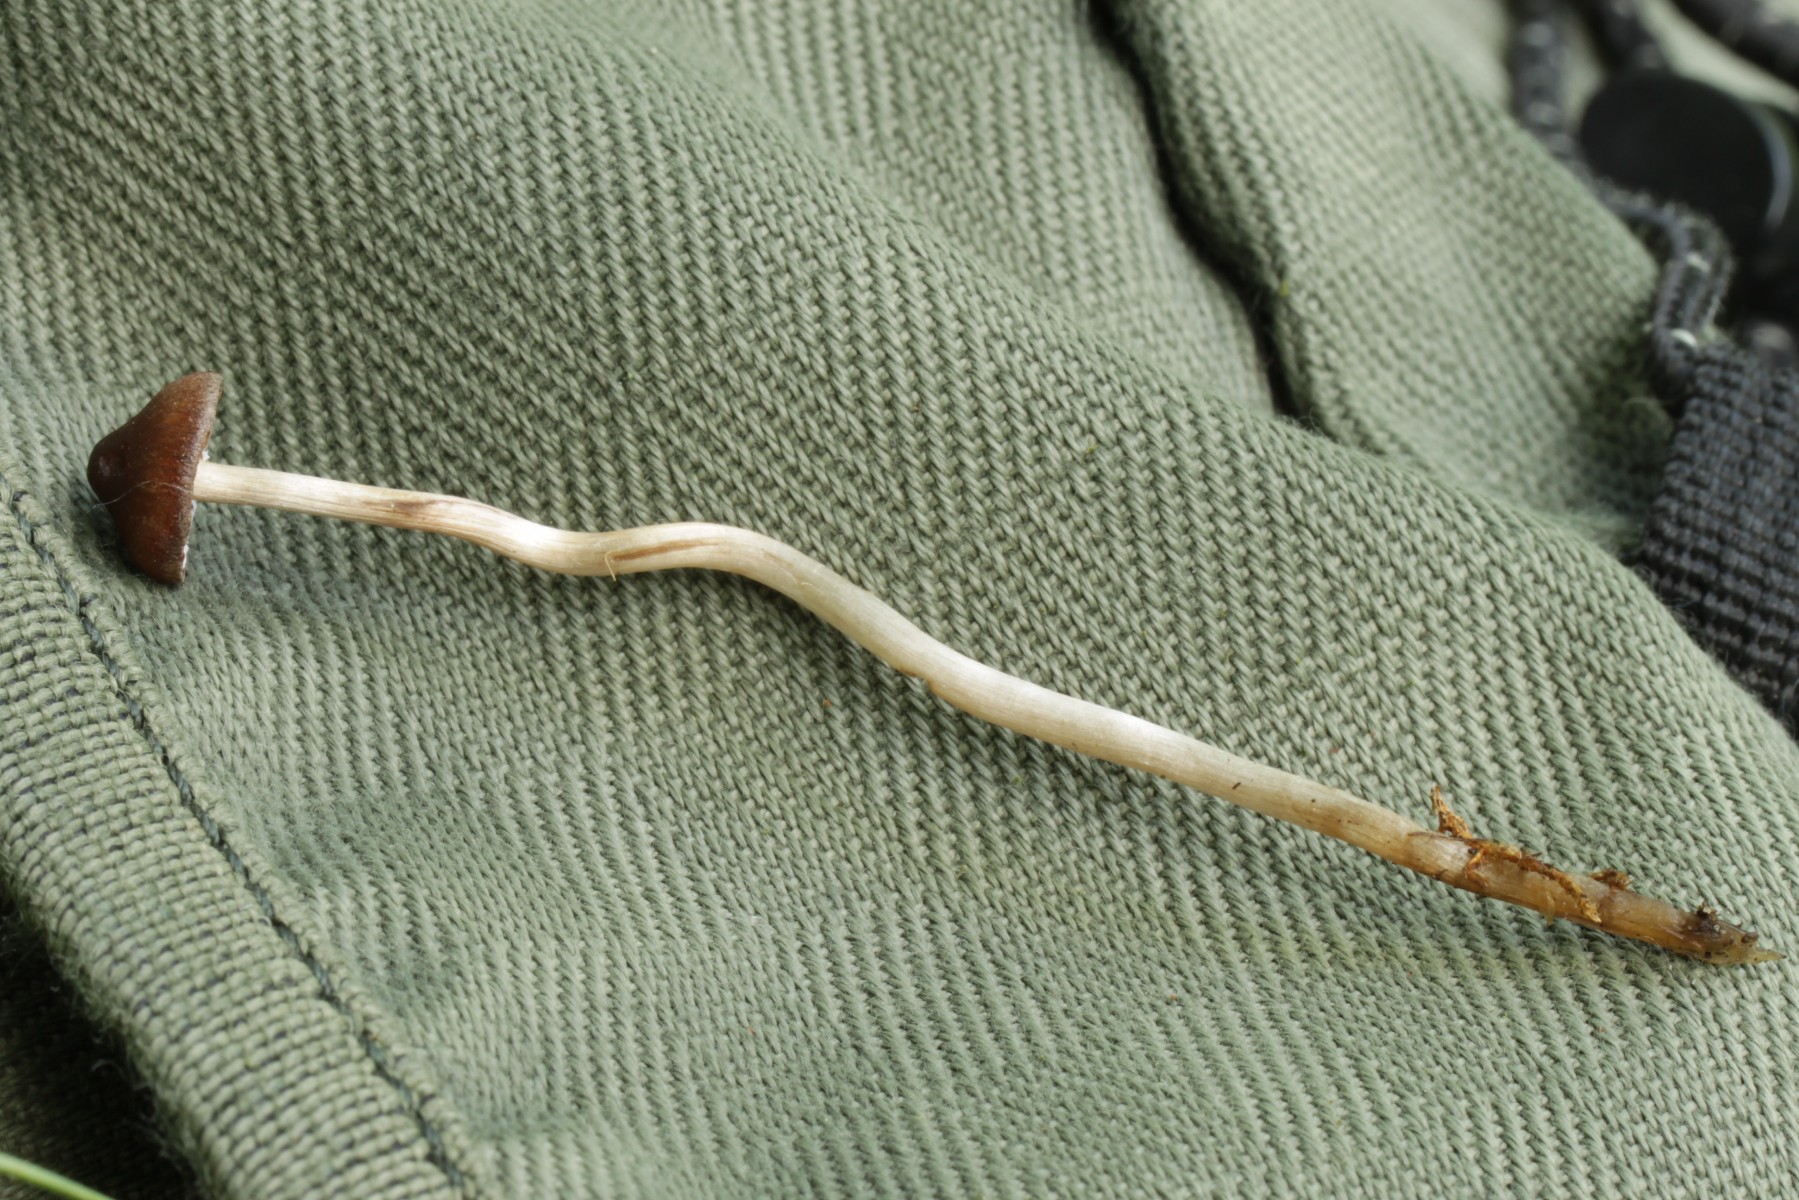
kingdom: Fungi
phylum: Basidiomycota
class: Agaricomycetes
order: Agaricales
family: Lyophyllaceae
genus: Sagaranella
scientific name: Sagaranella tylicolor
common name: kvælstof-gråblad
